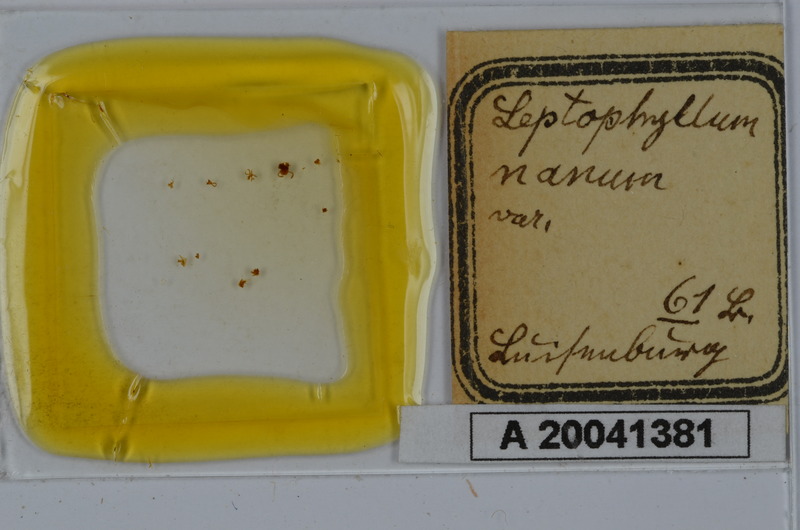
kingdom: Animalia
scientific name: Animalia
